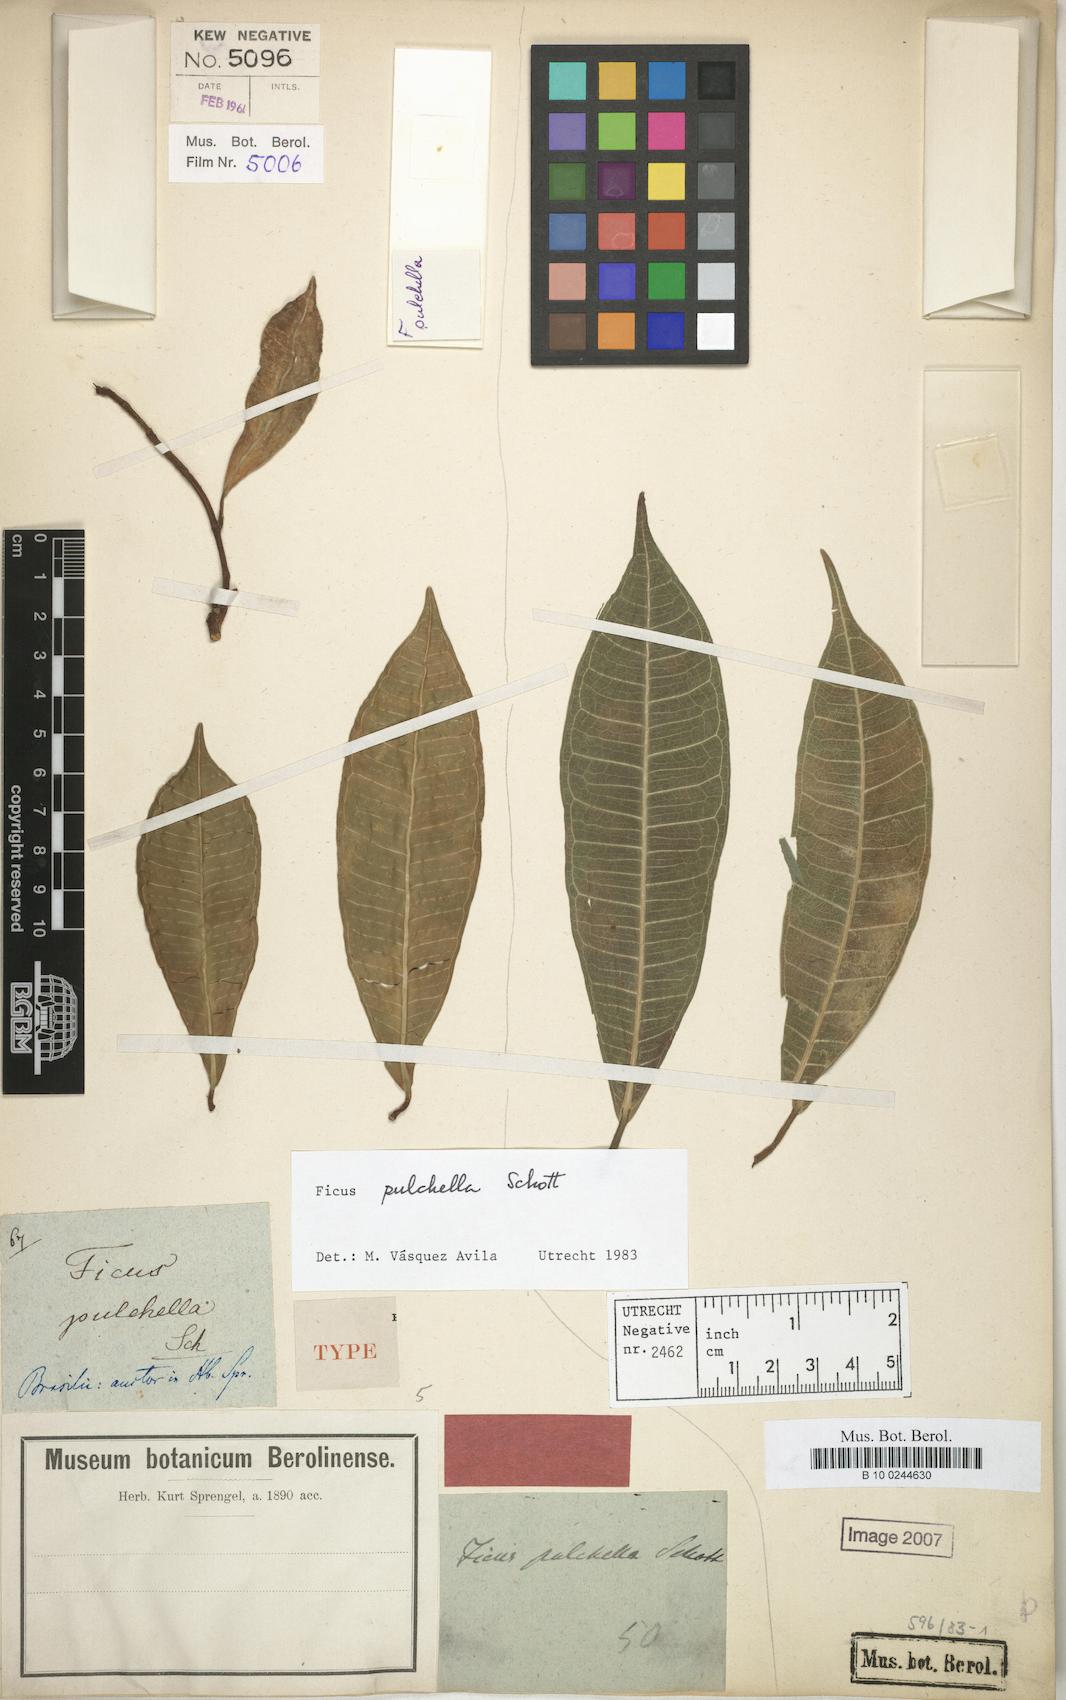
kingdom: Plantae
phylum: Tracheophyta
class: Magnoliopsida
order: Rosales
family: Moraceae
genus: Ficus
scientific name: Ficus pulchella
